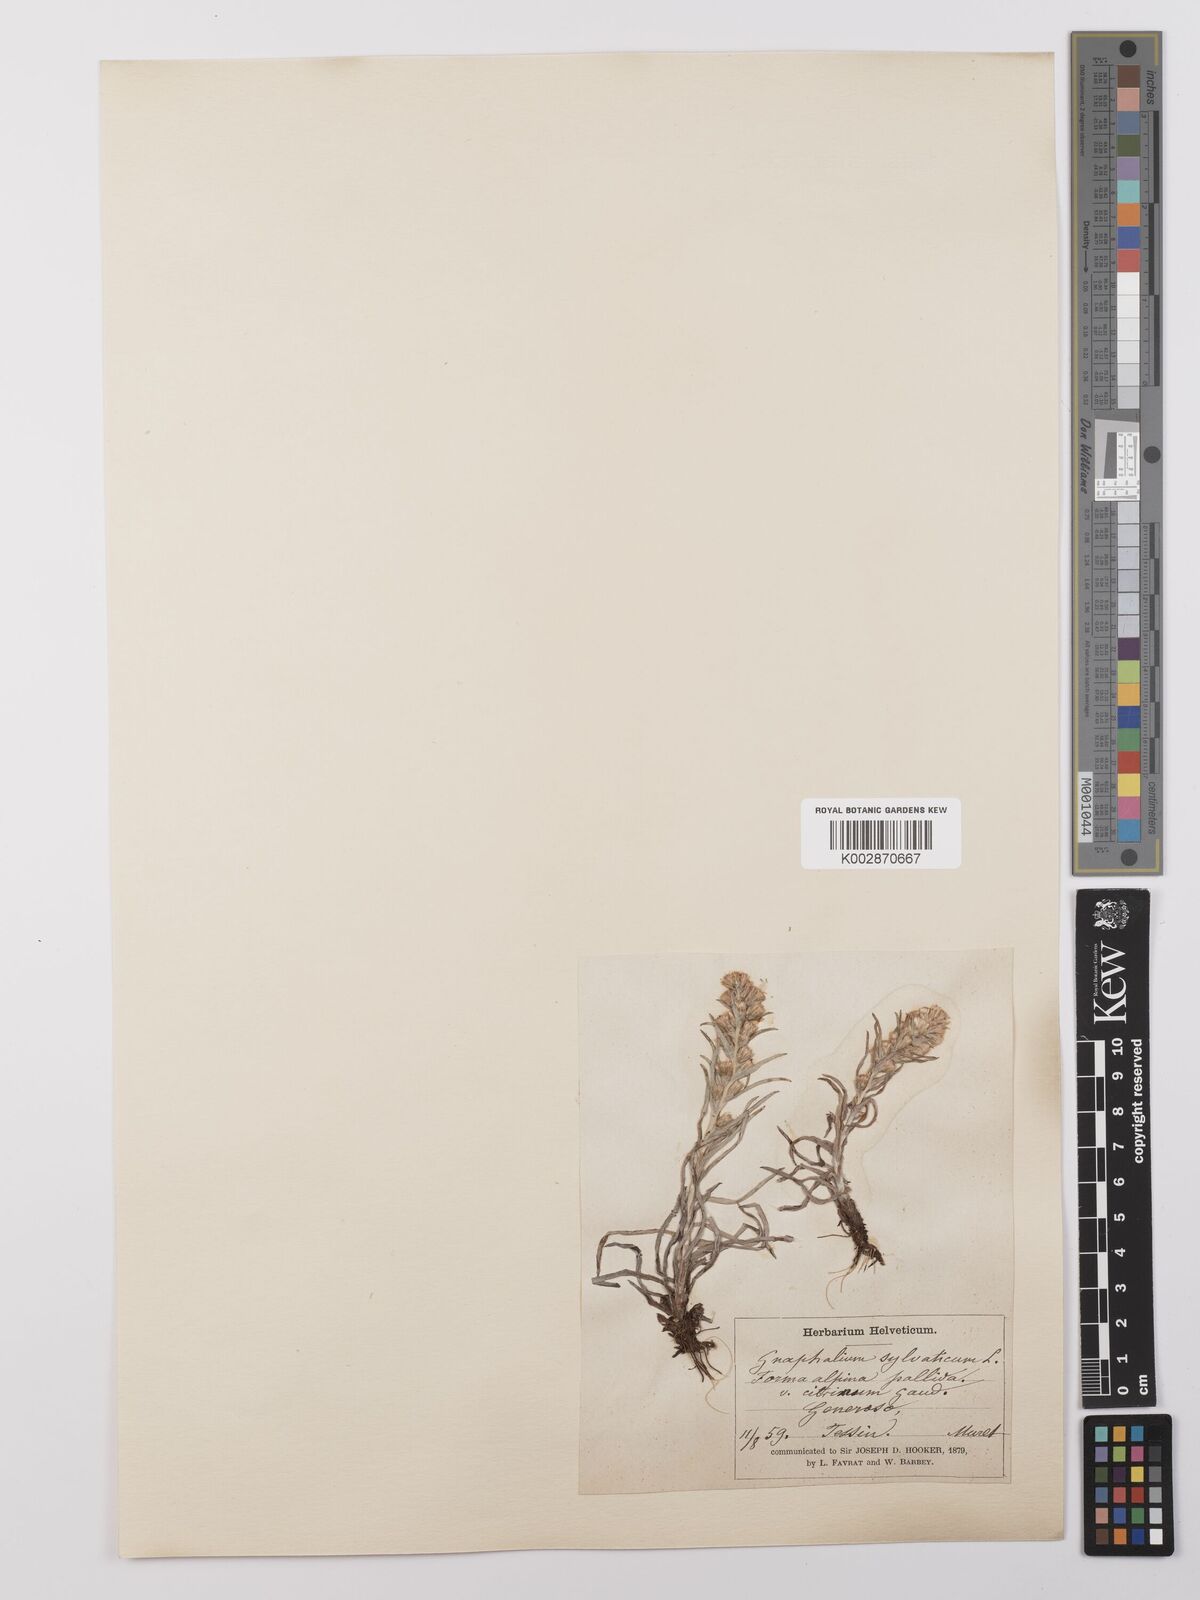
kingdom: Plantae
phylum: Tracheophyta
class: Magnoliopsida
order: Asterales
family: Asteraceae
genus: Omalotheca
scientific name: Omalotheca sylvatica
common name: Heath cudweed
